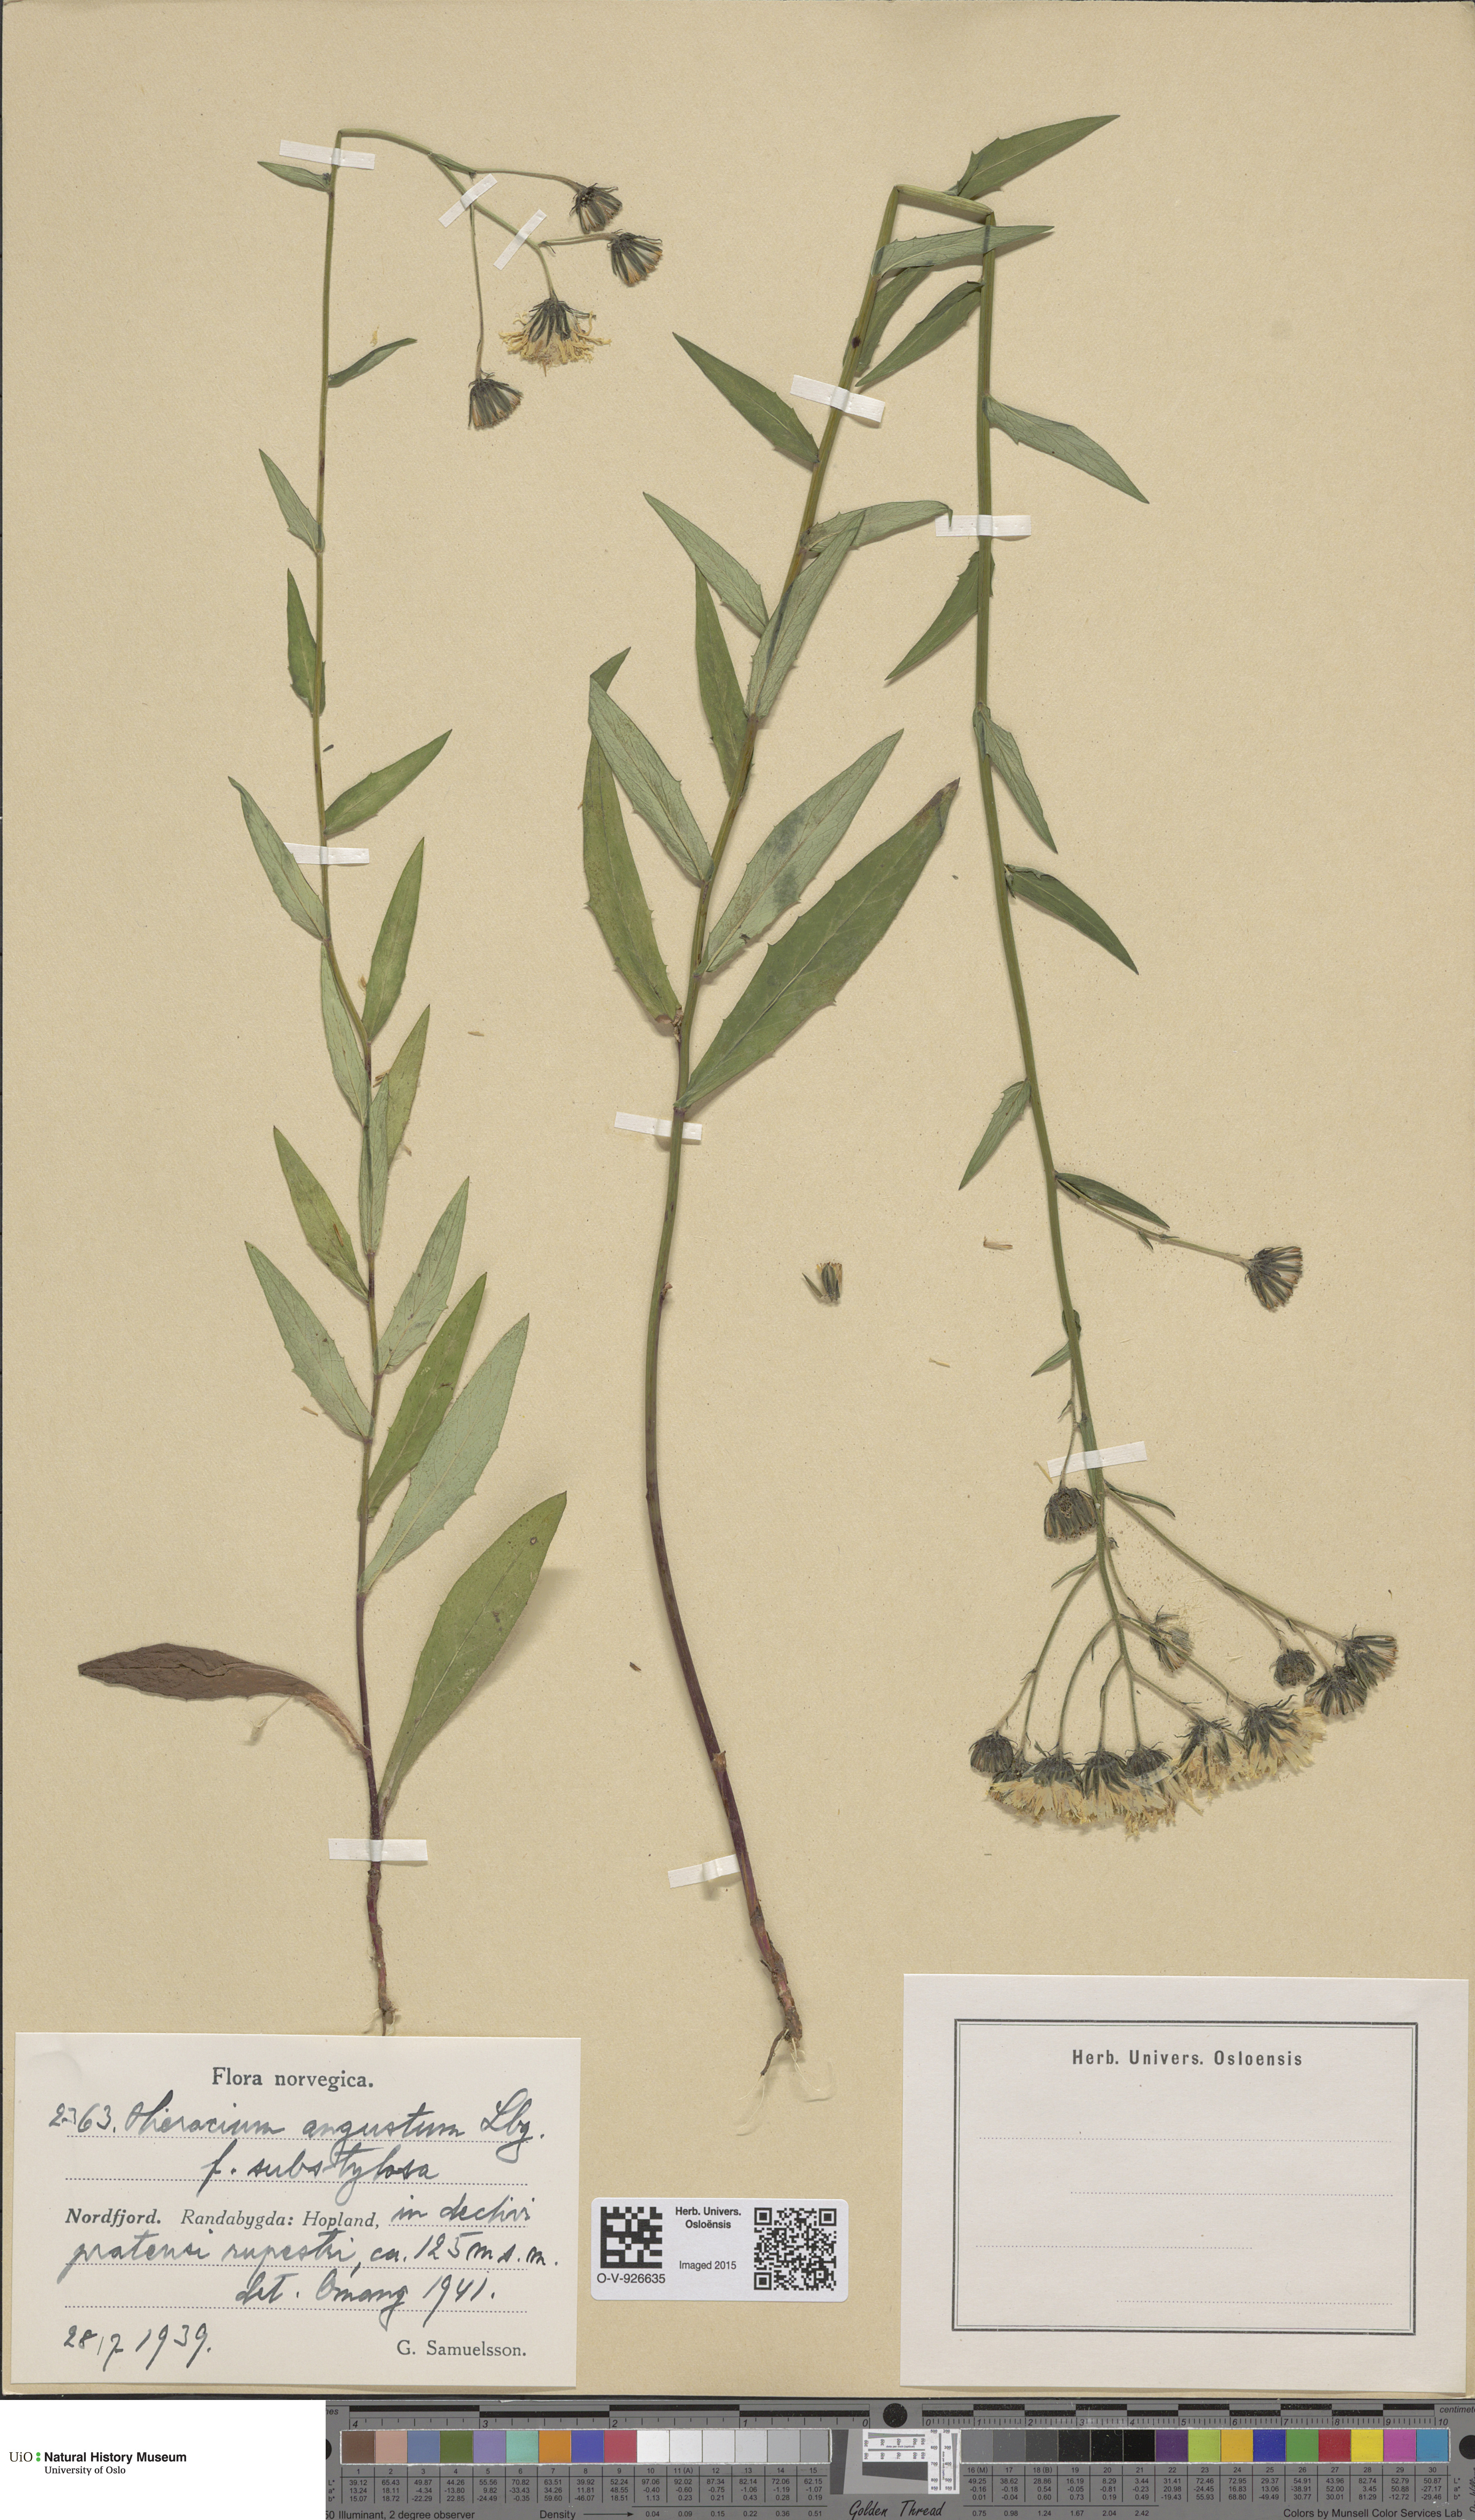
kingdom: Plantae
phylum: Tracheophyta
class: Magnoliopsida
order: Asterales
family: Asteraceae
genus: Hieracium
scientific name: Hieracium angustum
